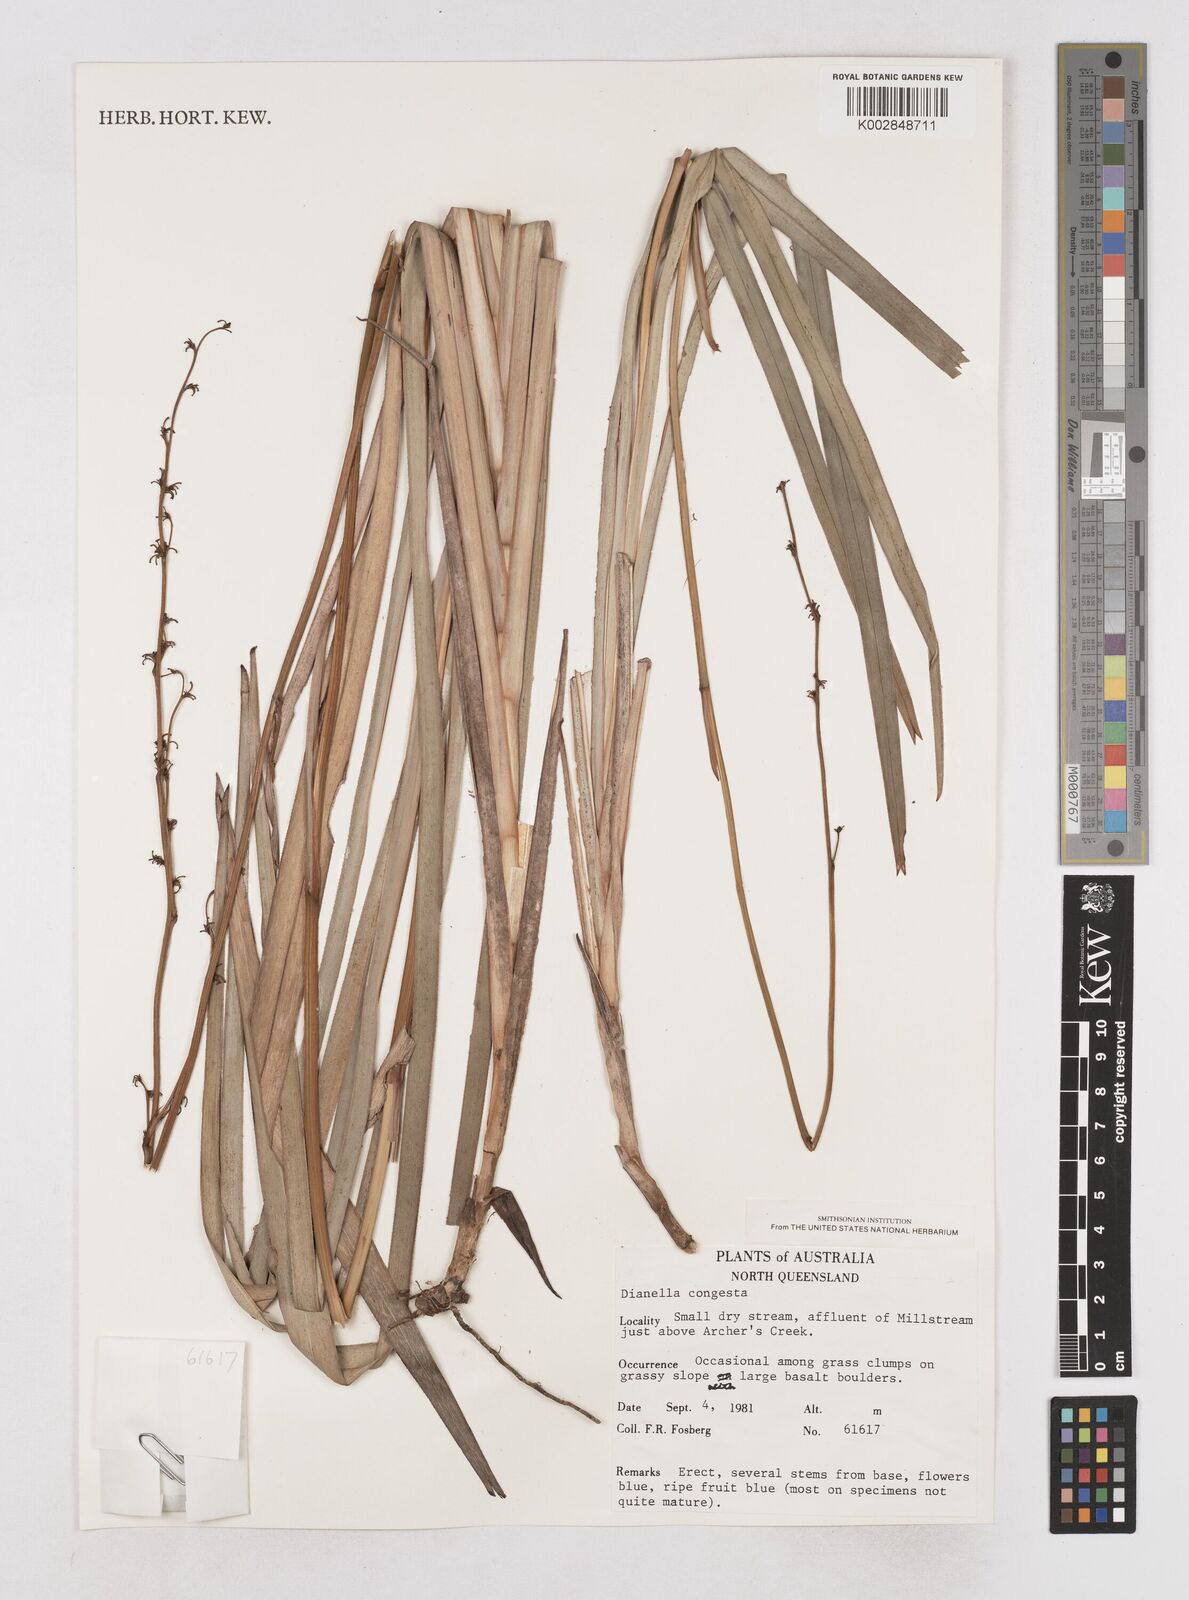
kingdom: Plantae
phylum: Tracheophyta
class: Liliopsida
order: Asparagales
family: Asphodelaceae
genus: Dianella
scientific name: Dianella congesta
